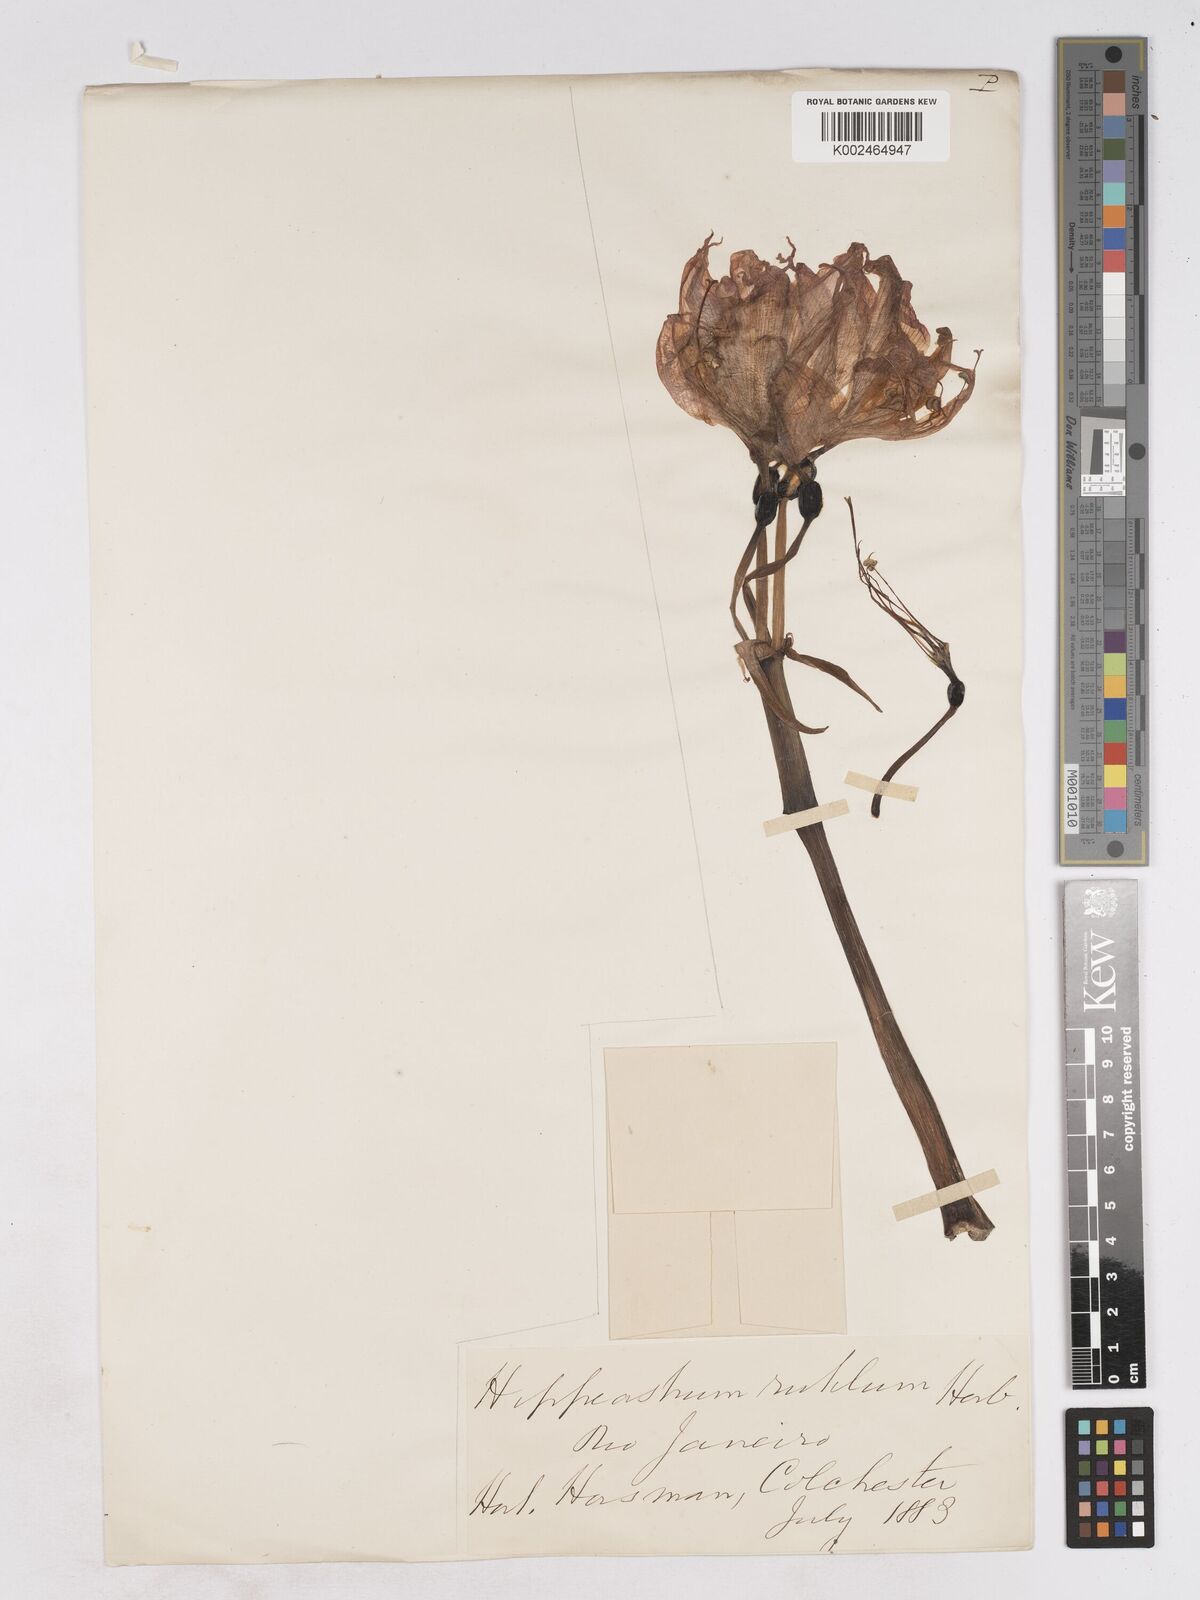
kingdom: Plantae
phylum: Tracheophyta
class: Liliopsida
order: Asparagales
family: Amaryllidaceae
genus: Hippeastrum
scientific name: Hippeastrum striatum
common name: Striped barbados lily
